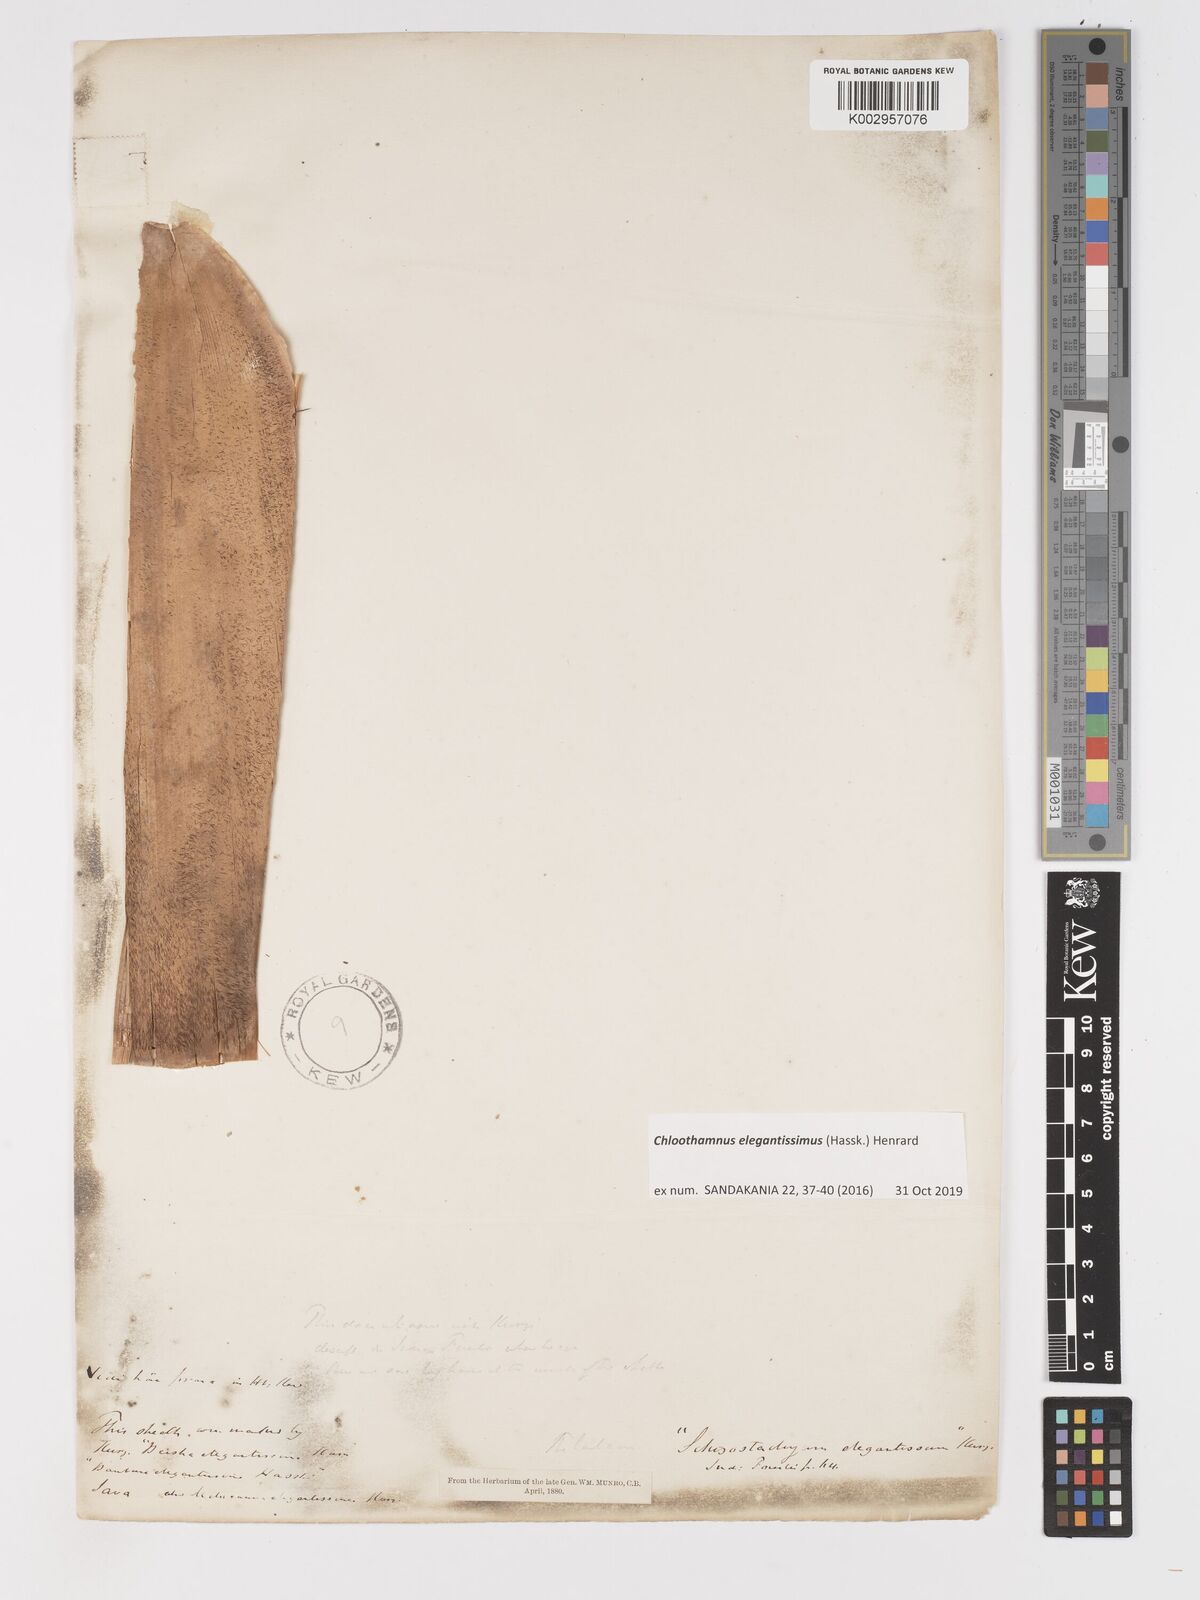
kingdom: Plantae
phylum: Tracheophyta
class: Liliopsida
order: Poales
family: Poaceae
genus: Chloothamnus
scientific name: Chloothamnus
